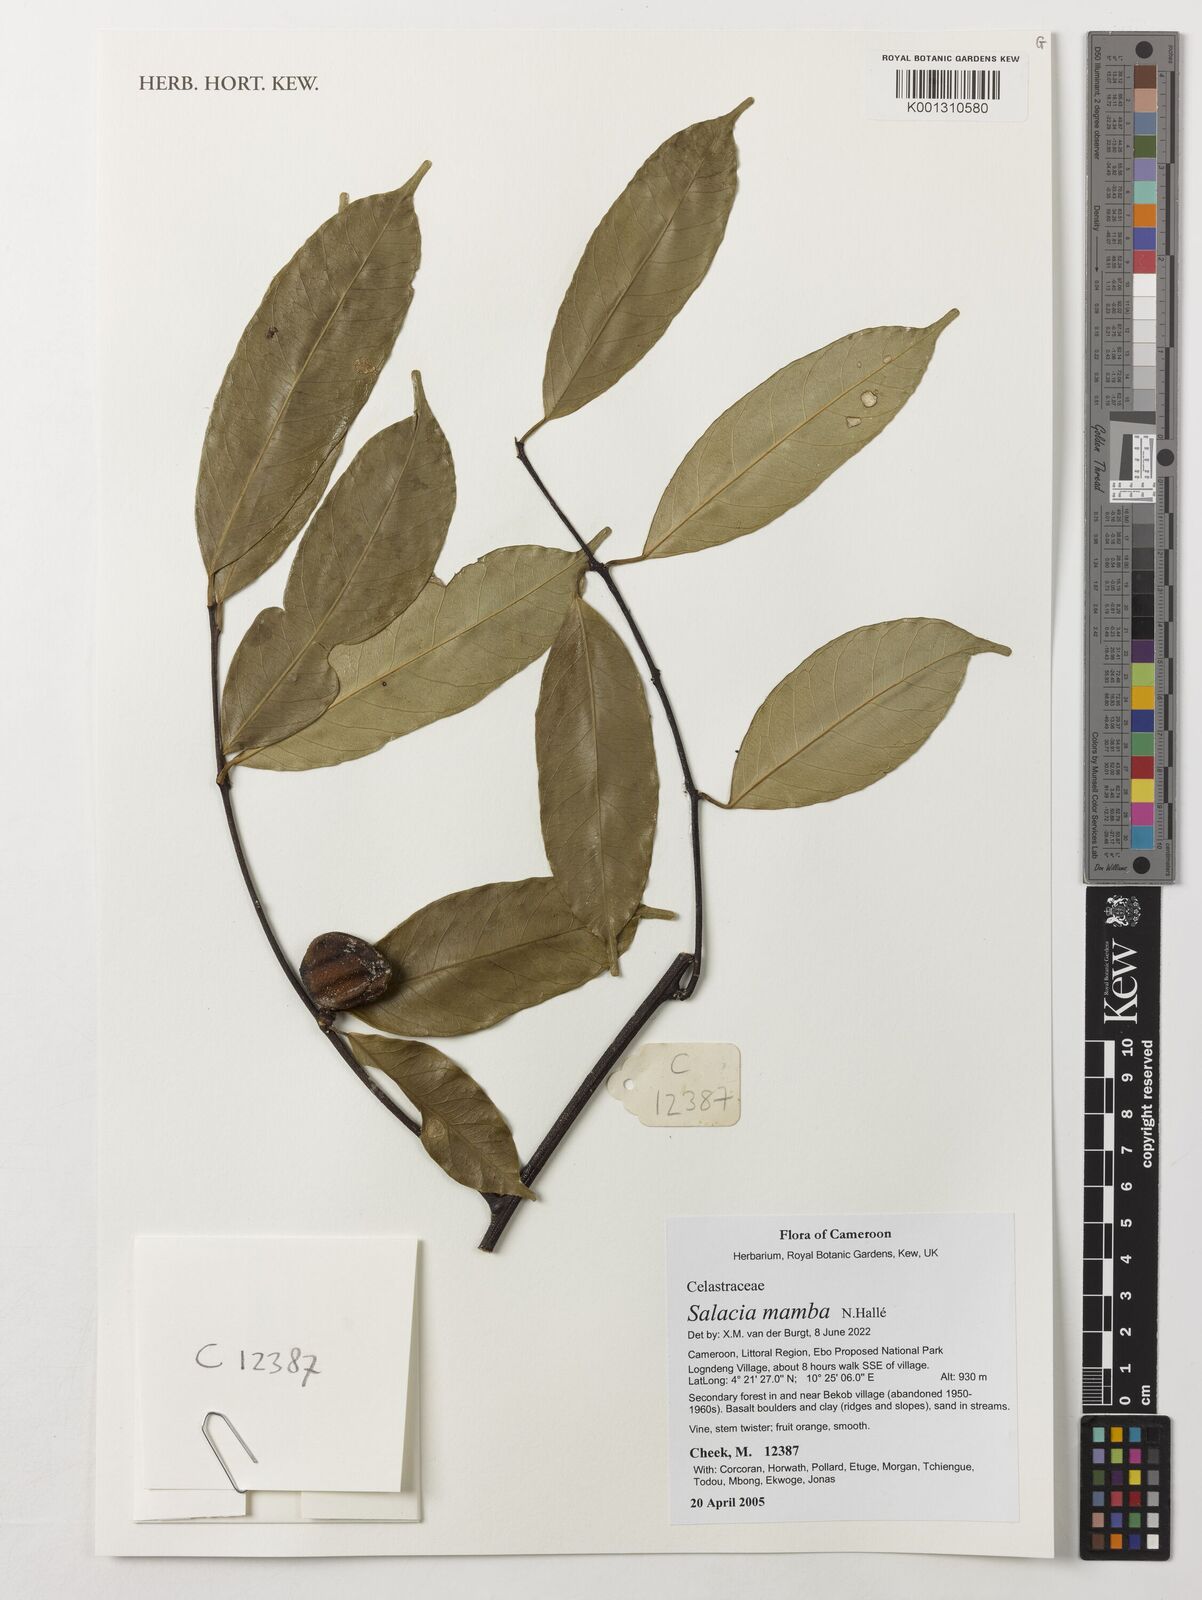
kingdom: Plantae
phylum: Tracheophyta
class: Magnoliopsida
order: Celastrales
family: Celastraceae
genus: Salacia
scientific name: Salacia mamba
